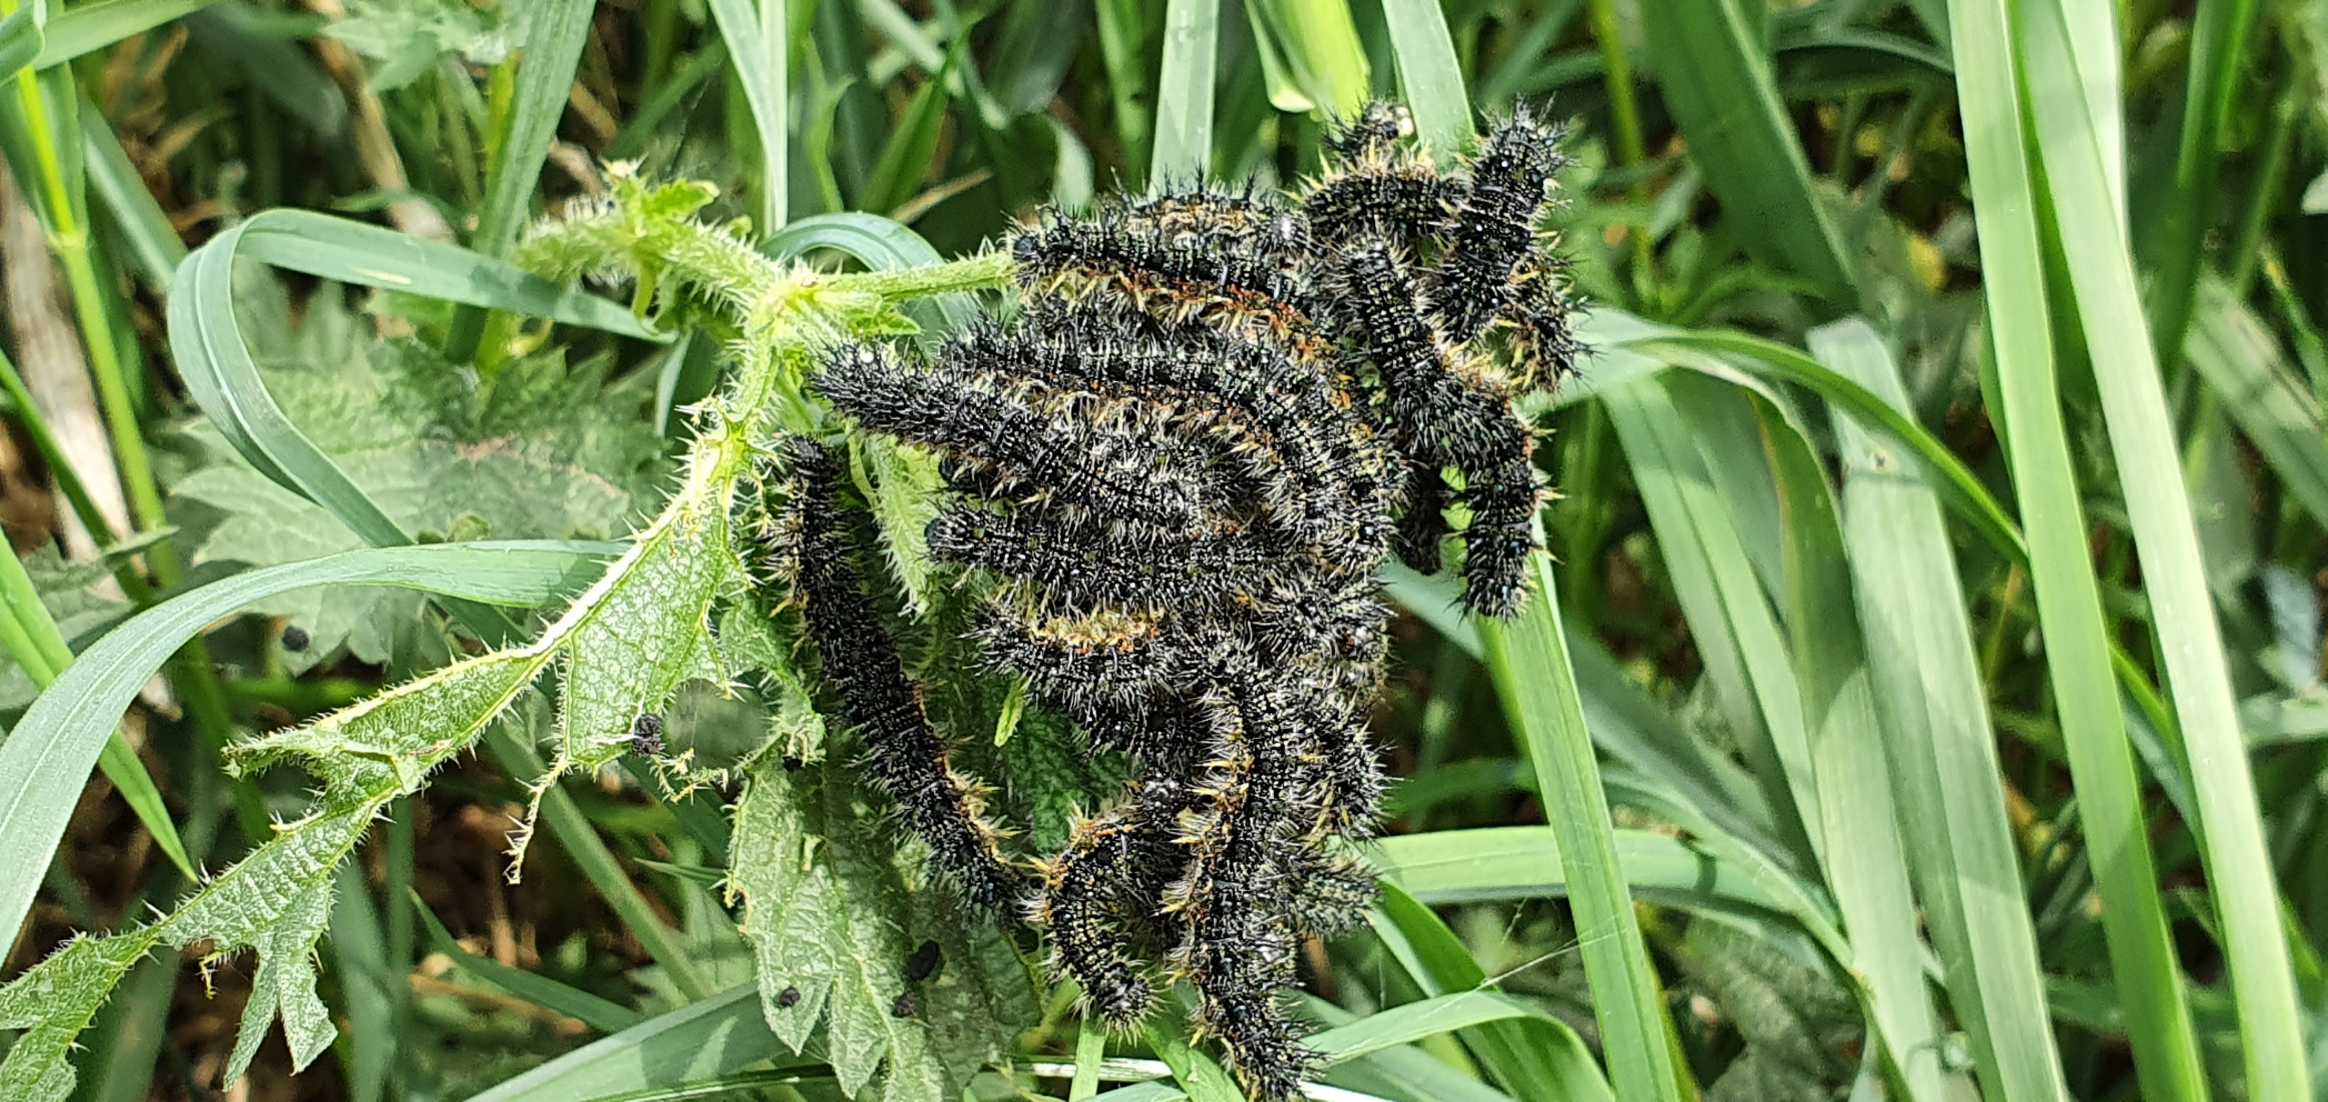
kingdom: Animalia
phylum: Arthropoda
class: Insecta
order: Lepidoptera
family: Nymphalidae
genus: Aglais
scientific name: Aglais urticae
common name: Nældens takvinge
